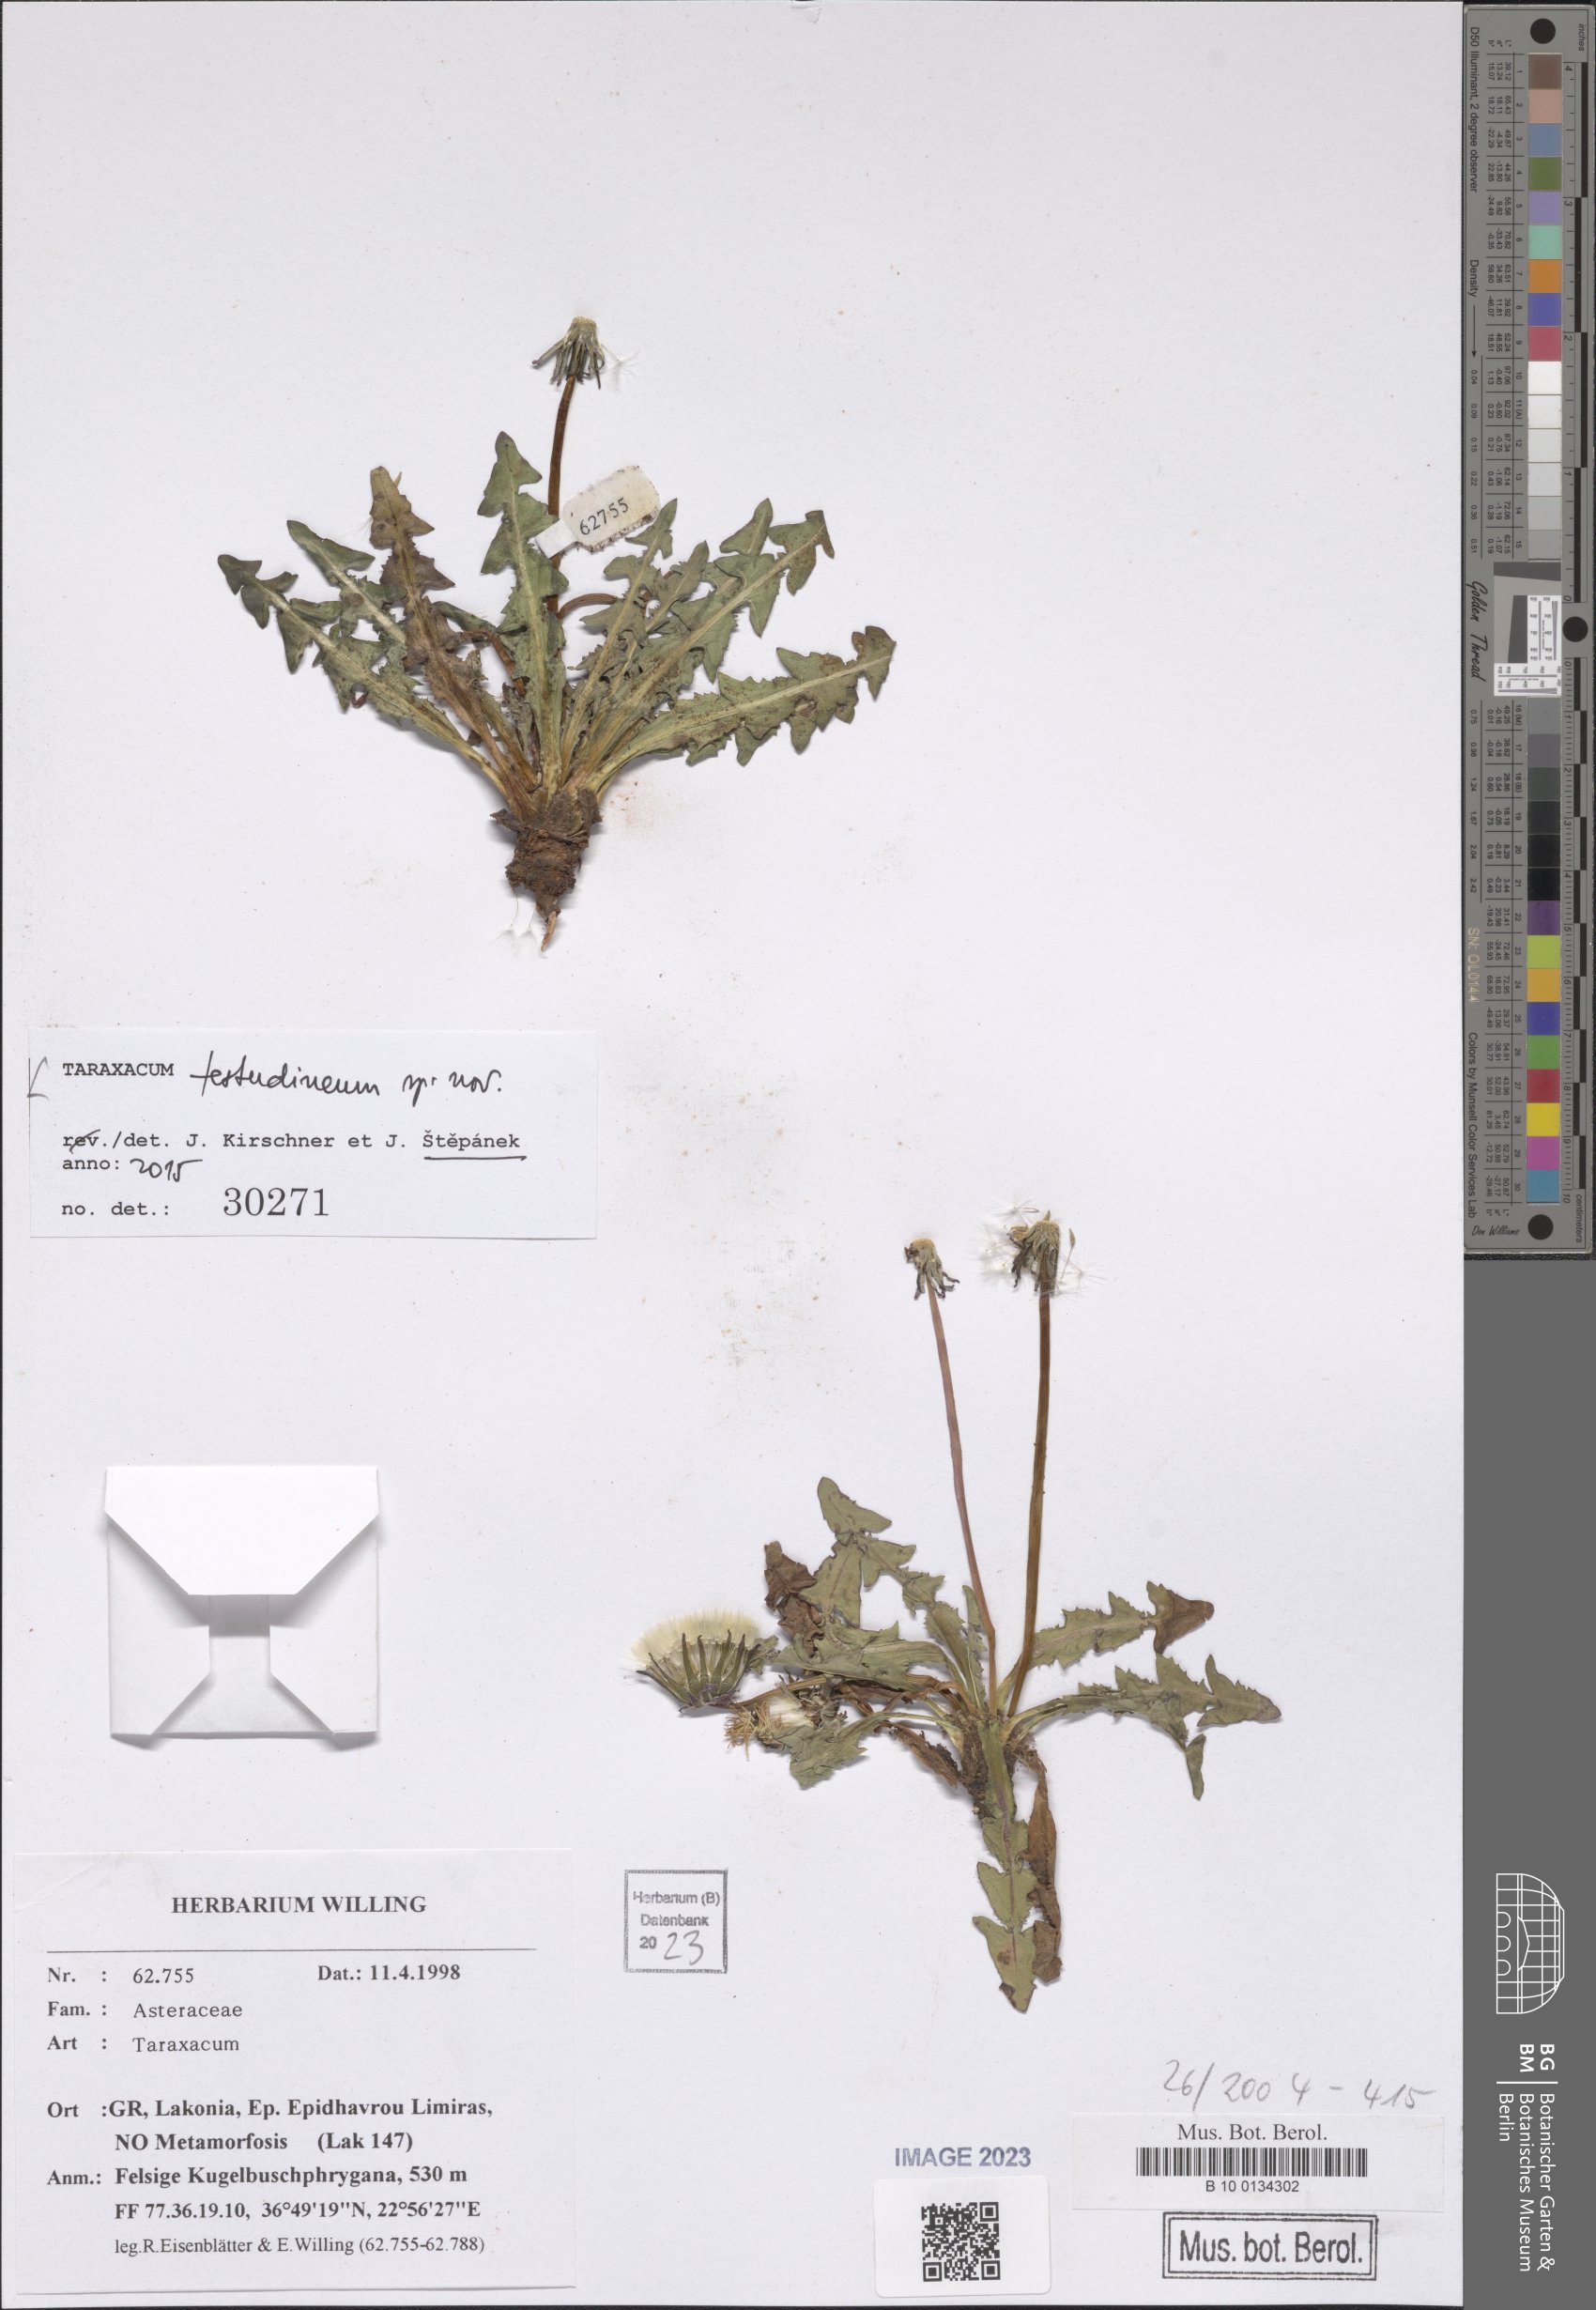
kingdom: Plantae
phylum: Tracheophyta
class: Magnoliopsida
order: Asterales
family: Asteraceae
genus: Taraxacum
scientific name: Taraxacum
